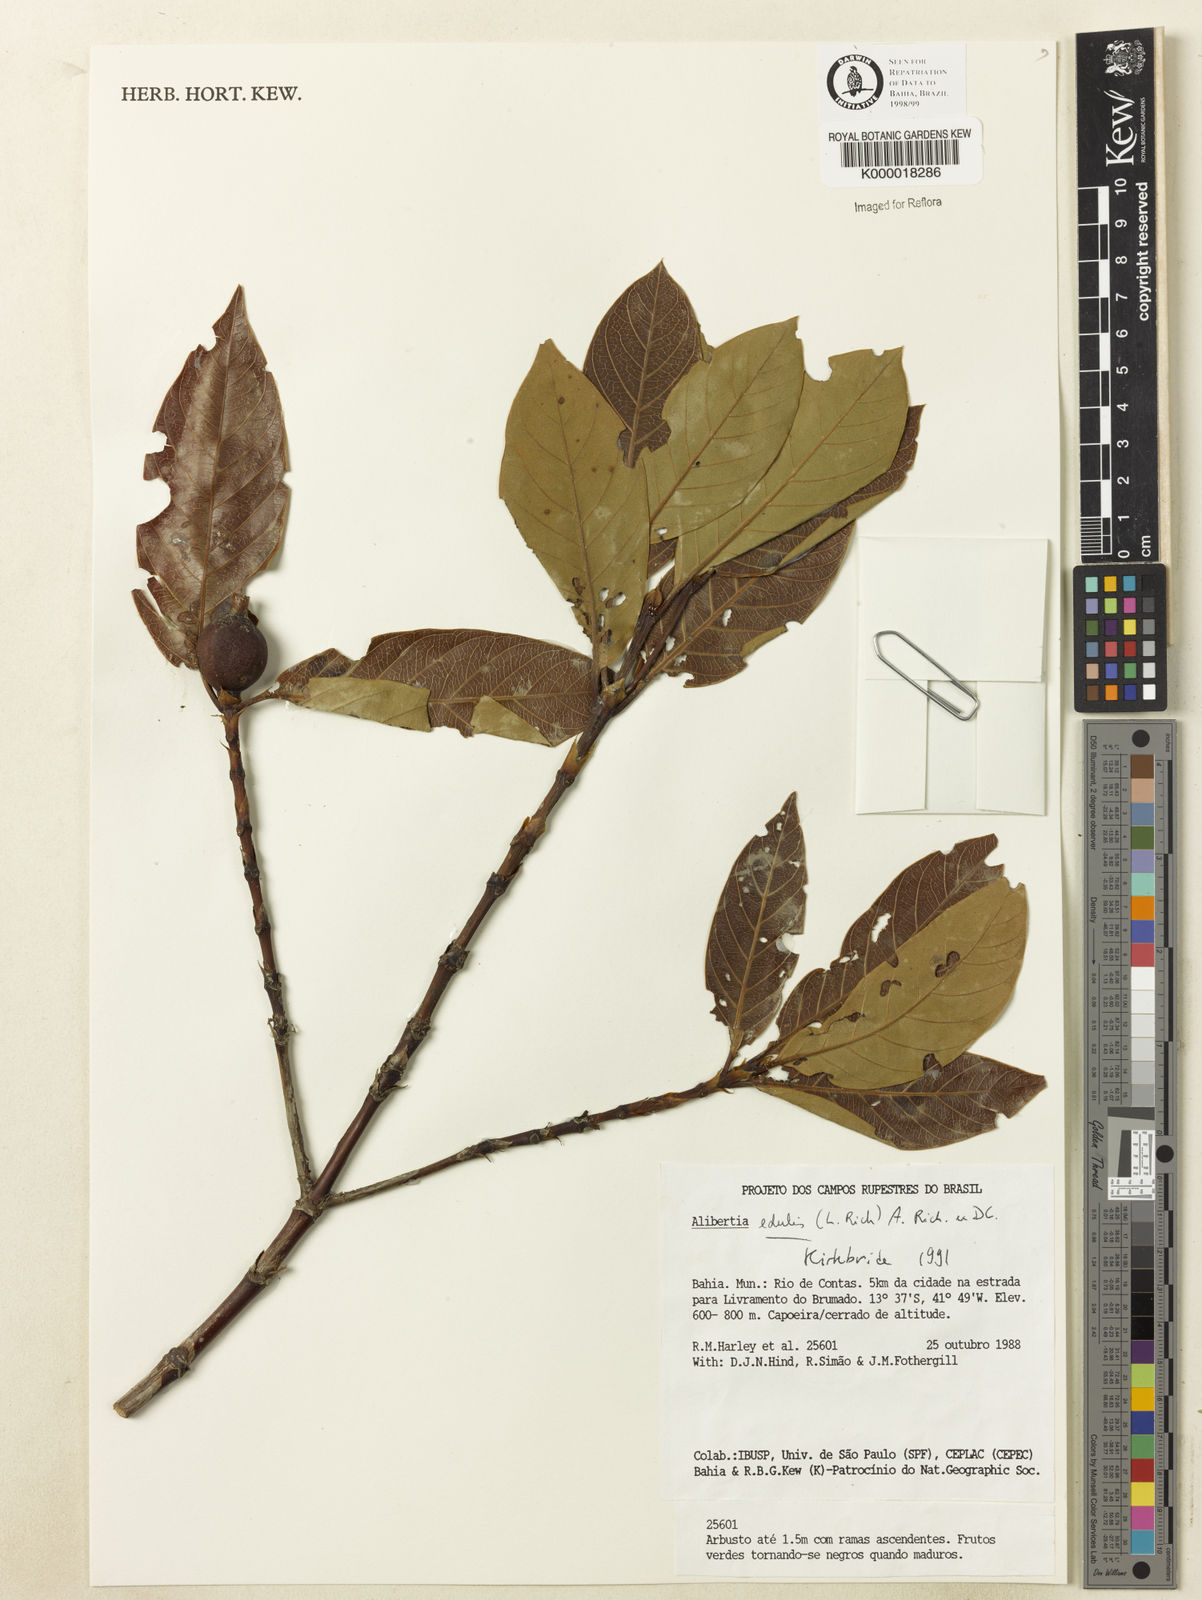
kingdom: Plantae
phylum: Tracheophyta
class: Magnoliopsida
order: Gentianales
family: Rubiaceae
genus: Alibertia
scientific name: Alibertia edulis
